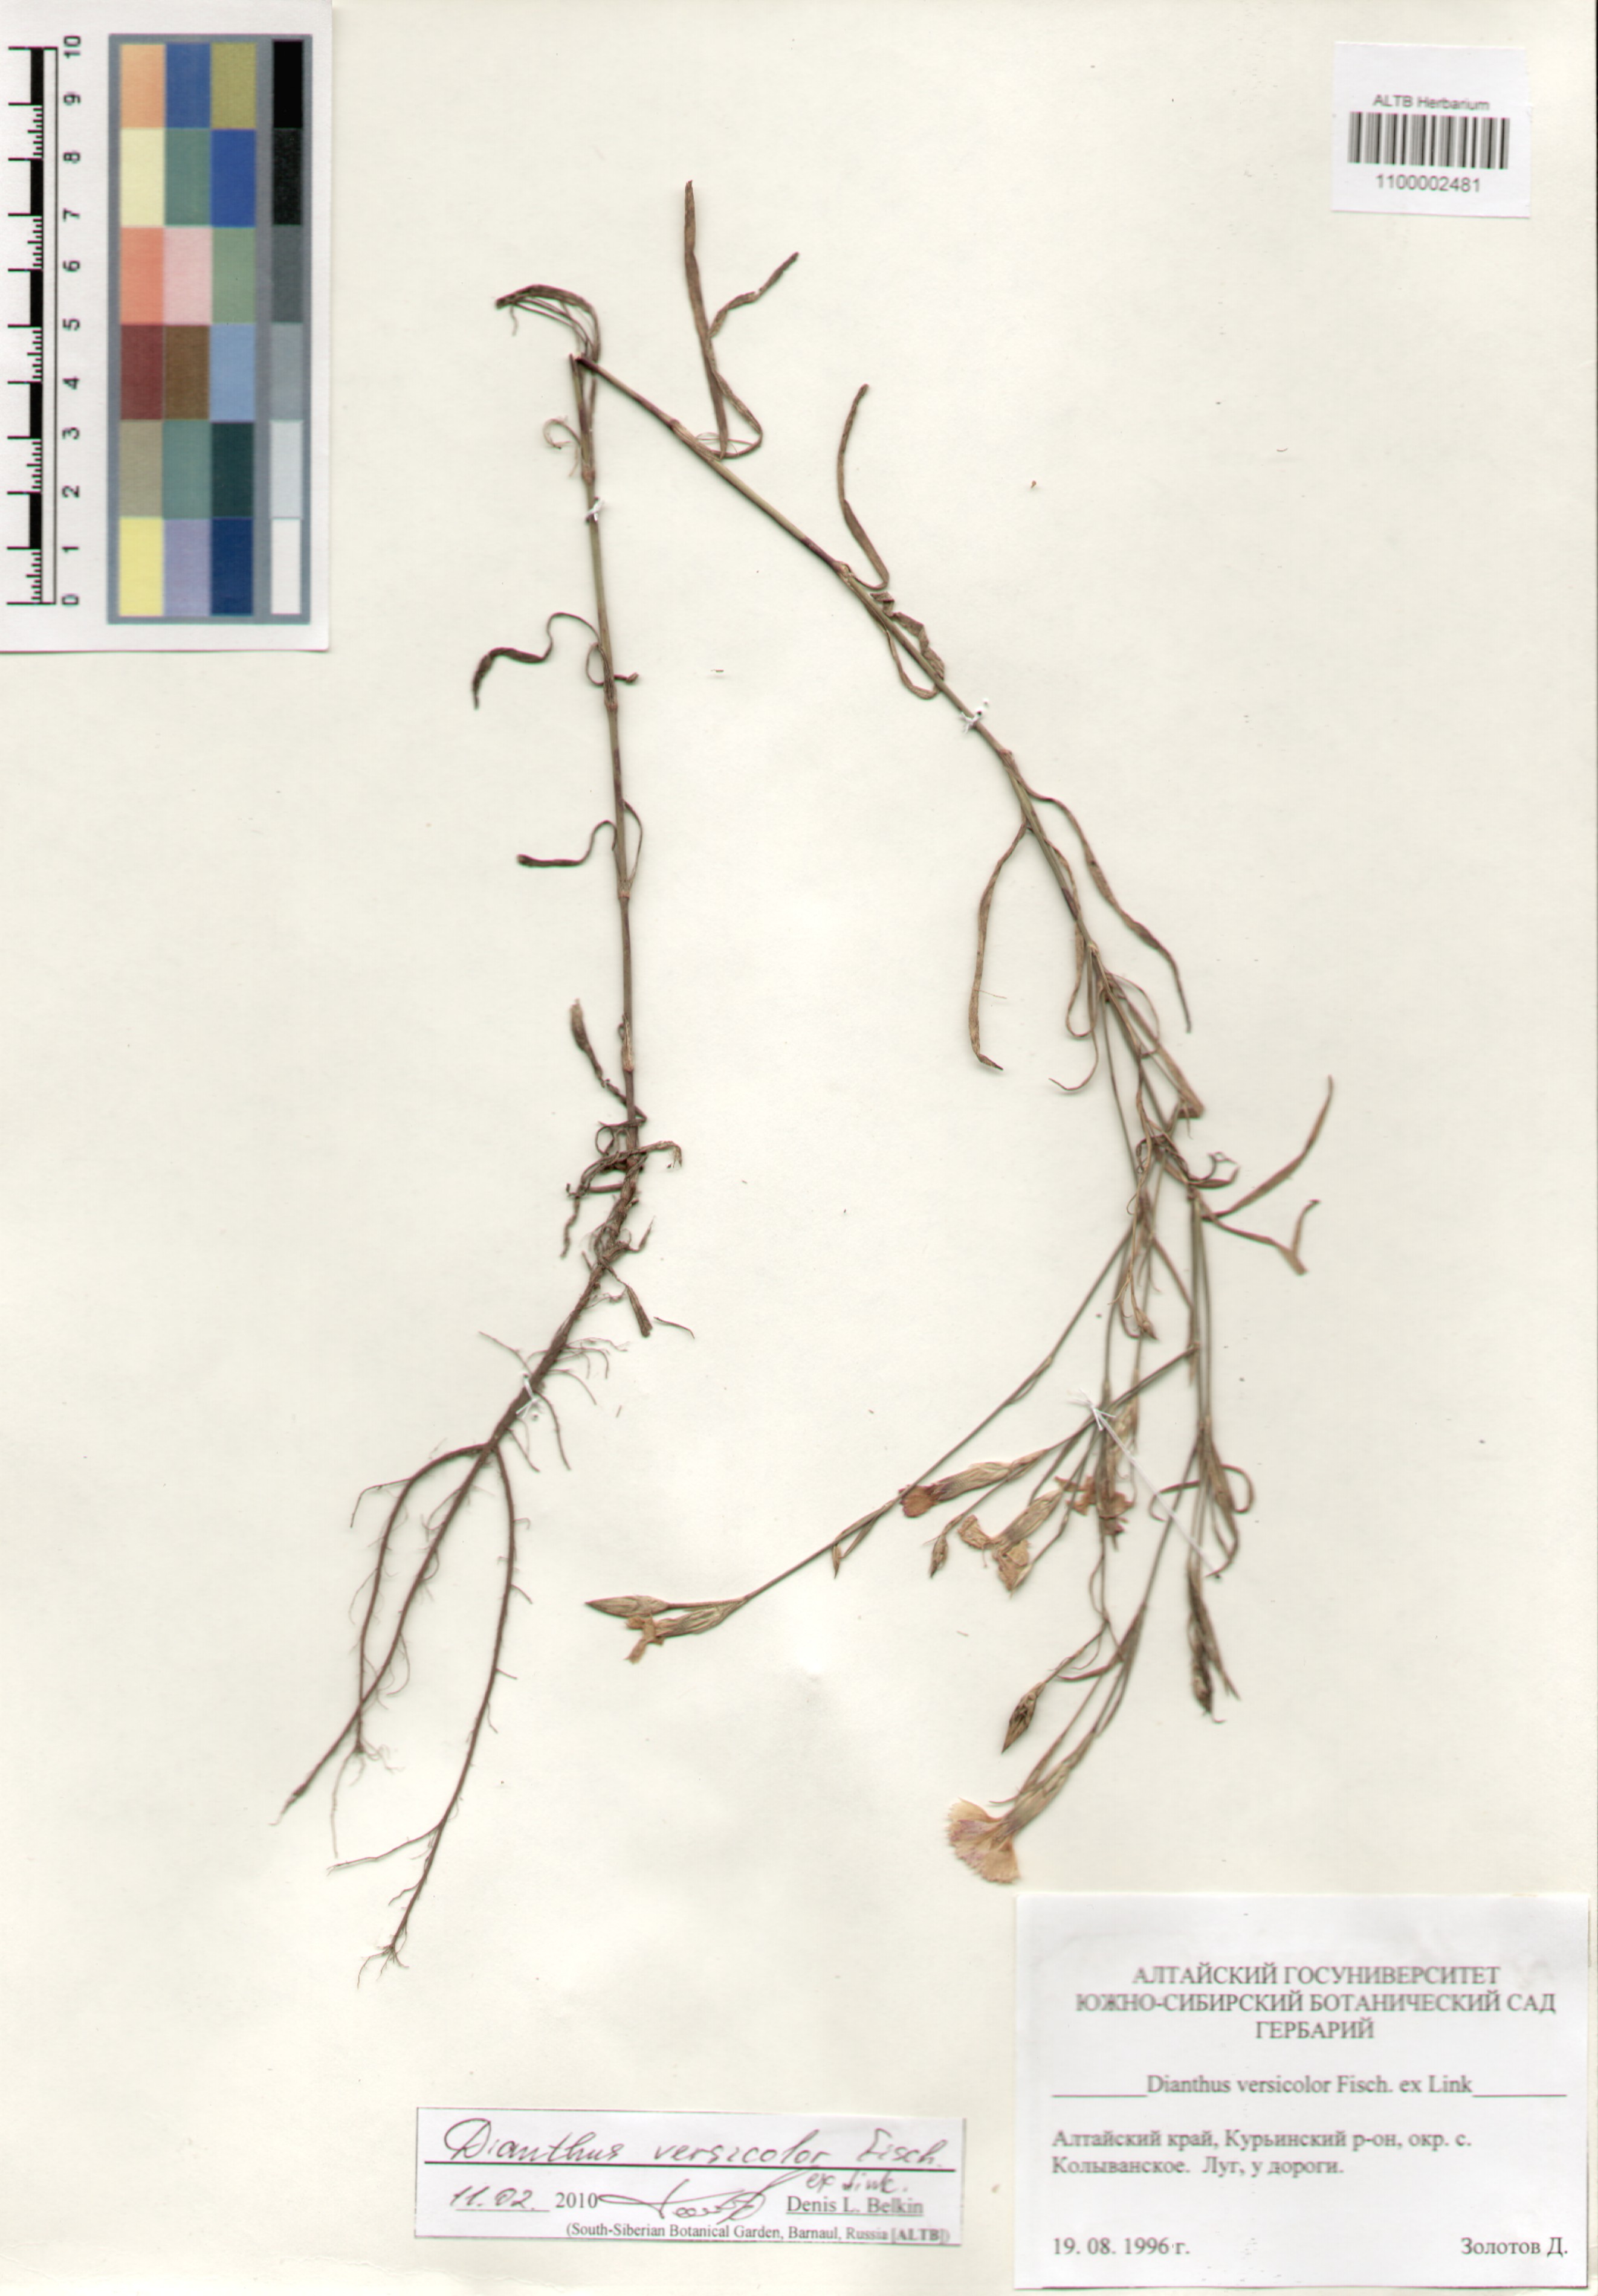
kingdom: Plantae
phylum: Tracheophyta
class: Magnoliopsida
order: Caryophyllales
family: Caryophyllaceae
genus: Dianthus
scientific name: Dianthus chinensis
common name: Rainbow pink
